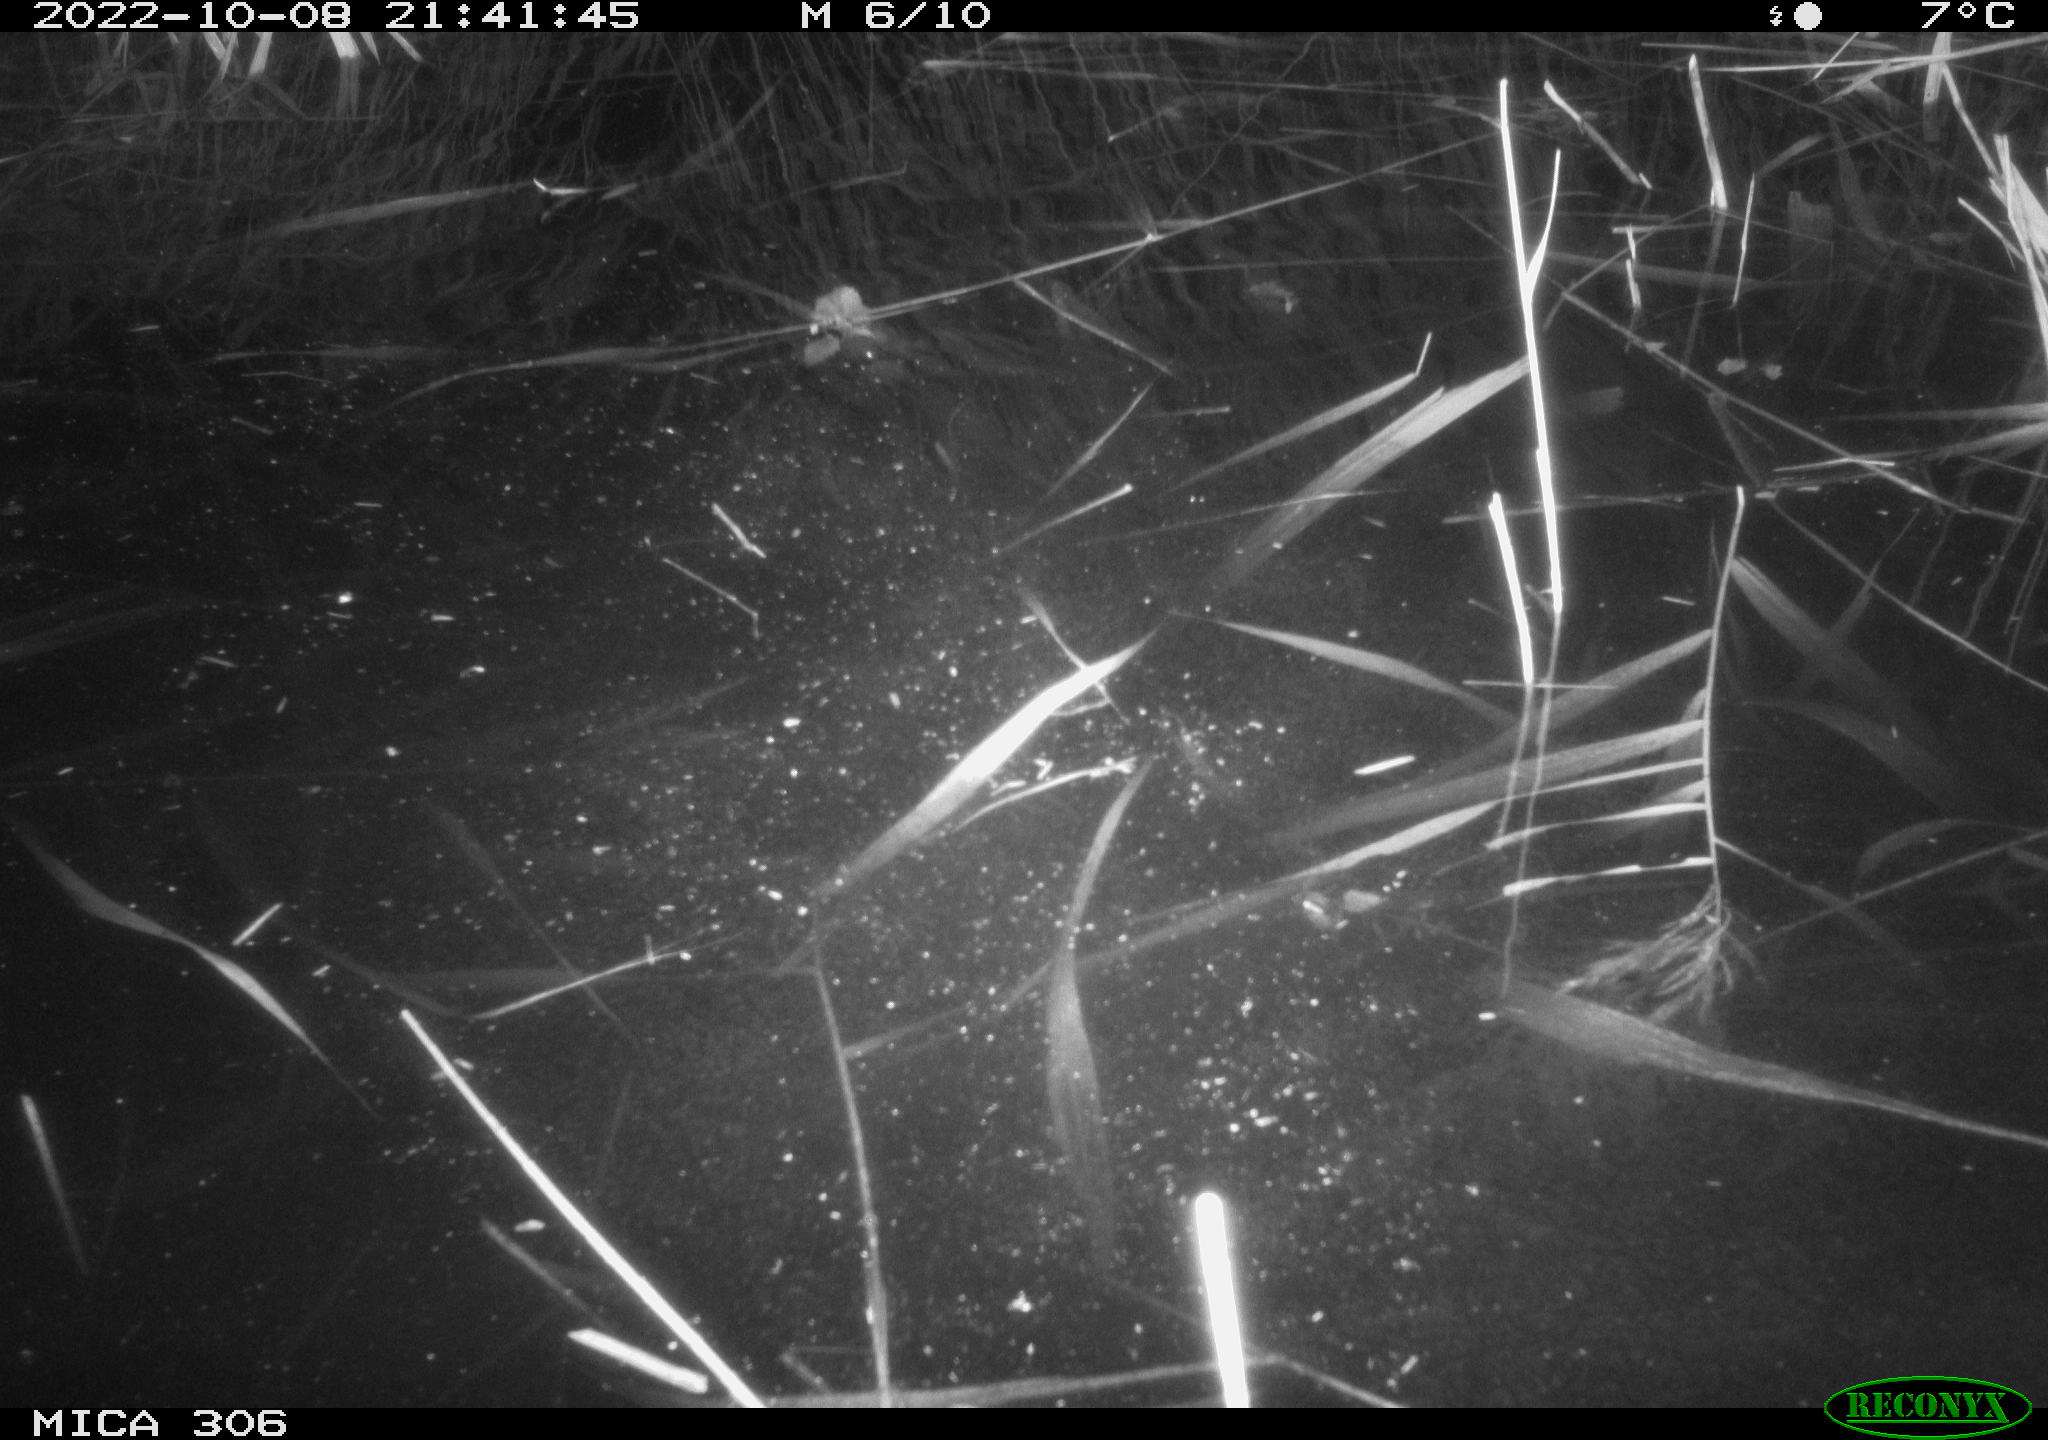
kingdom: Animalia
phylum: Chordata
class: Mammalia
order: Rodentia
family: Cricetidae
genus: Ondatra
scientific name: Ondatra zibethicus
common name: Muskrat
